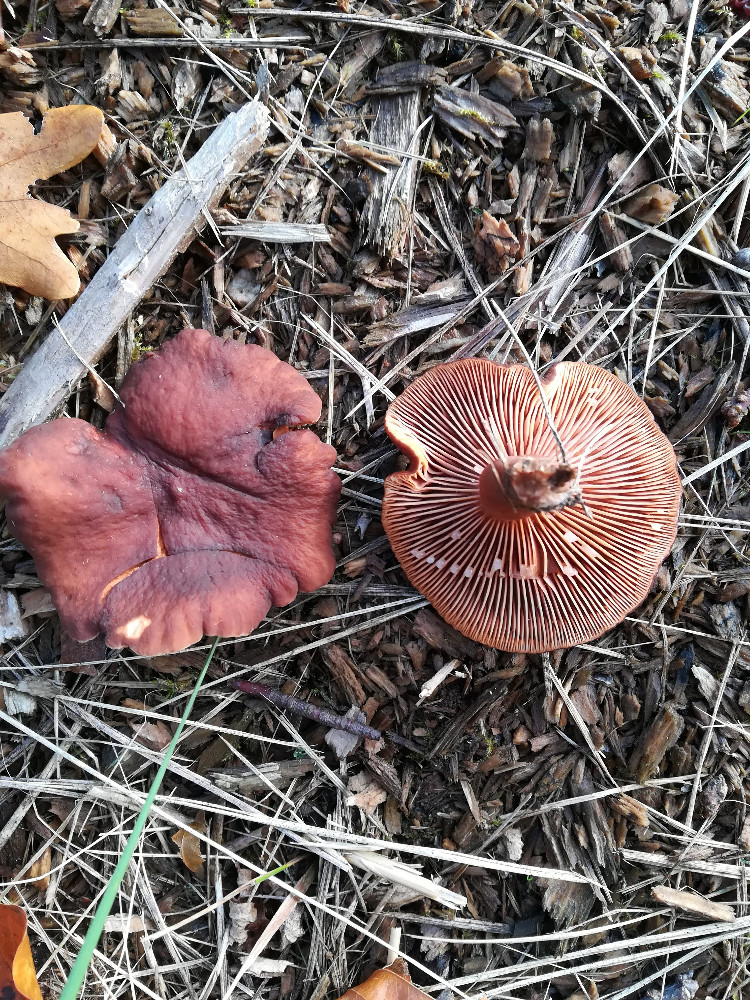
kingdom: Fungi
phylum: Basidiomycota
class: Agaricomycetes
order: Russulales
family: Russulaceae
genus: Lactarius
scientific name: Lactarius camphoratus
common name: kamfer-mælkehat
